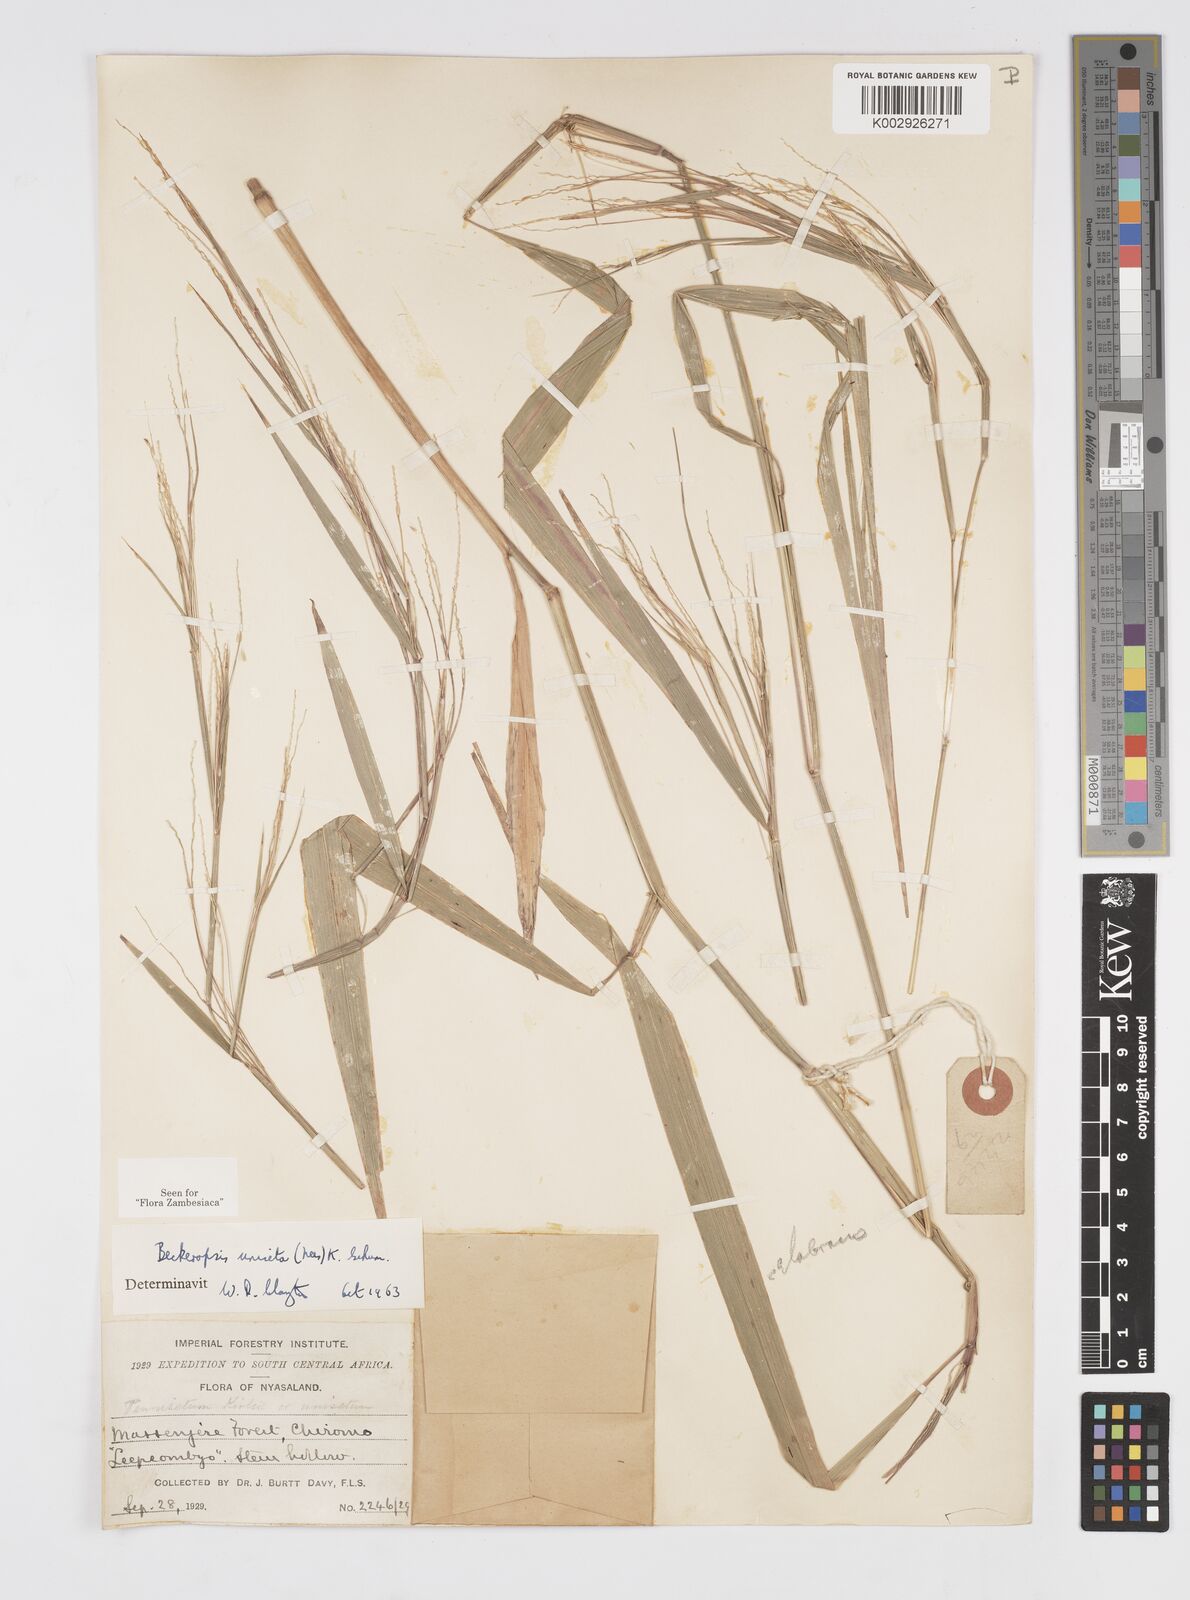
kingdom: Plantae
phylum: Tracheophyta
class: Liliopsida
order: Poales
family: Poaceae
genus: Cenchrus
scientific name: Cenchrus unisetus
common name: Natal grass
